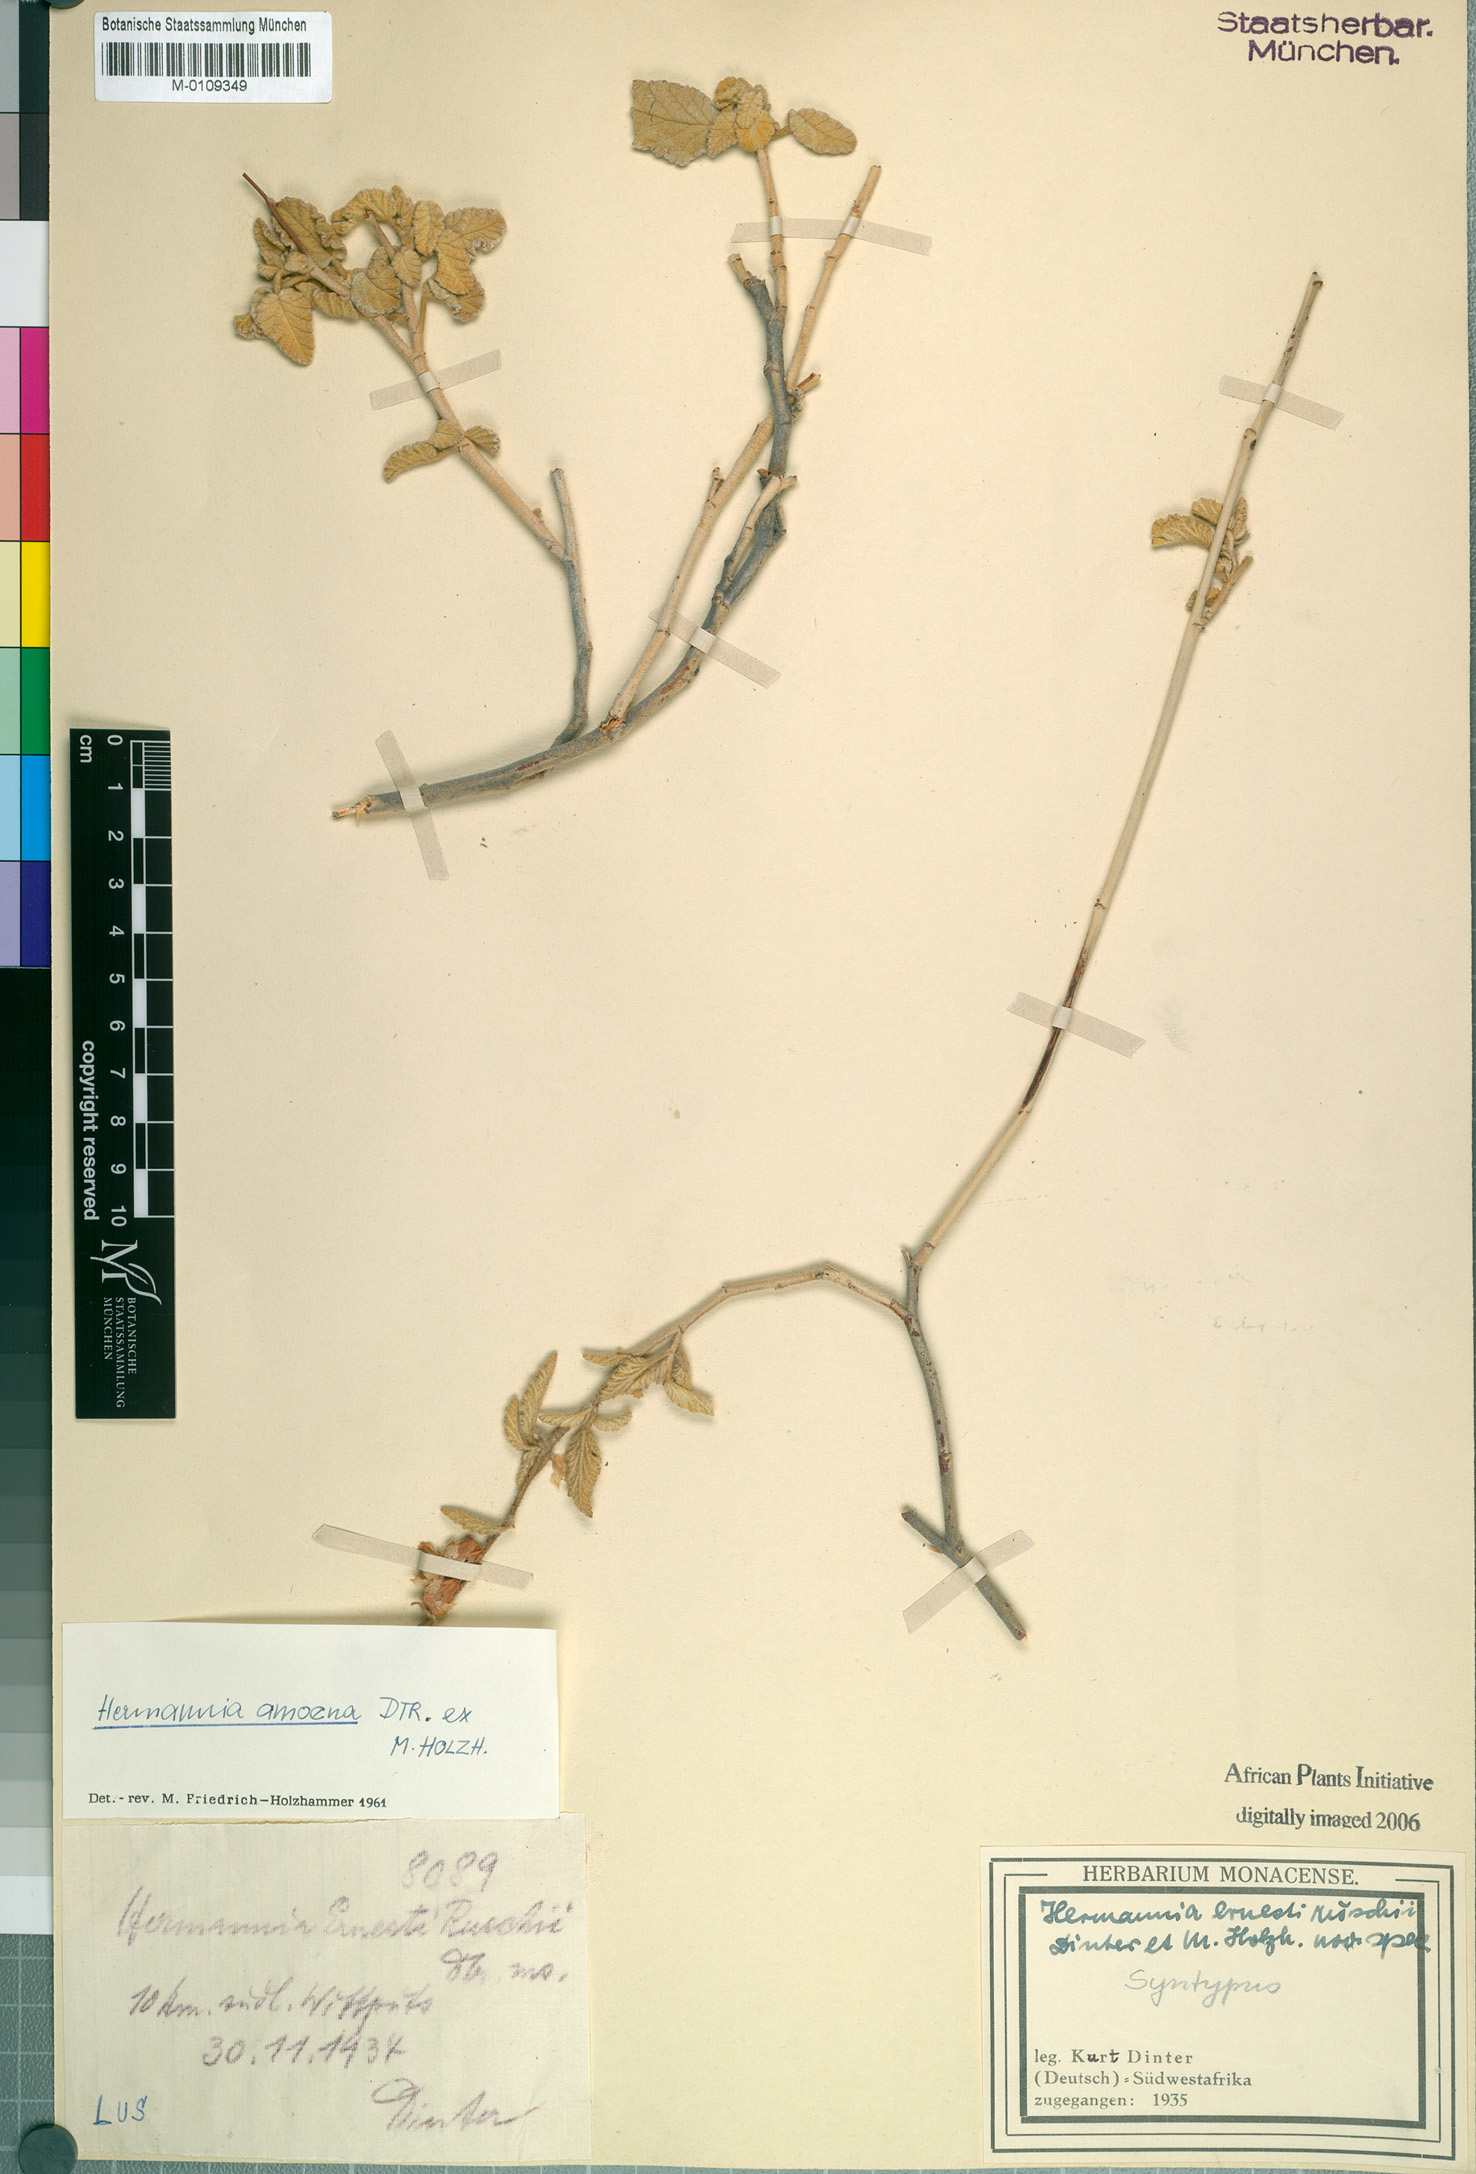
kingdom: Plantae
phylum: Tracheophyta
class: Magnoliopsida
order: Malvales
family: Malvaceae
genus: Hermannia
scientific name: Hermannia amoena
